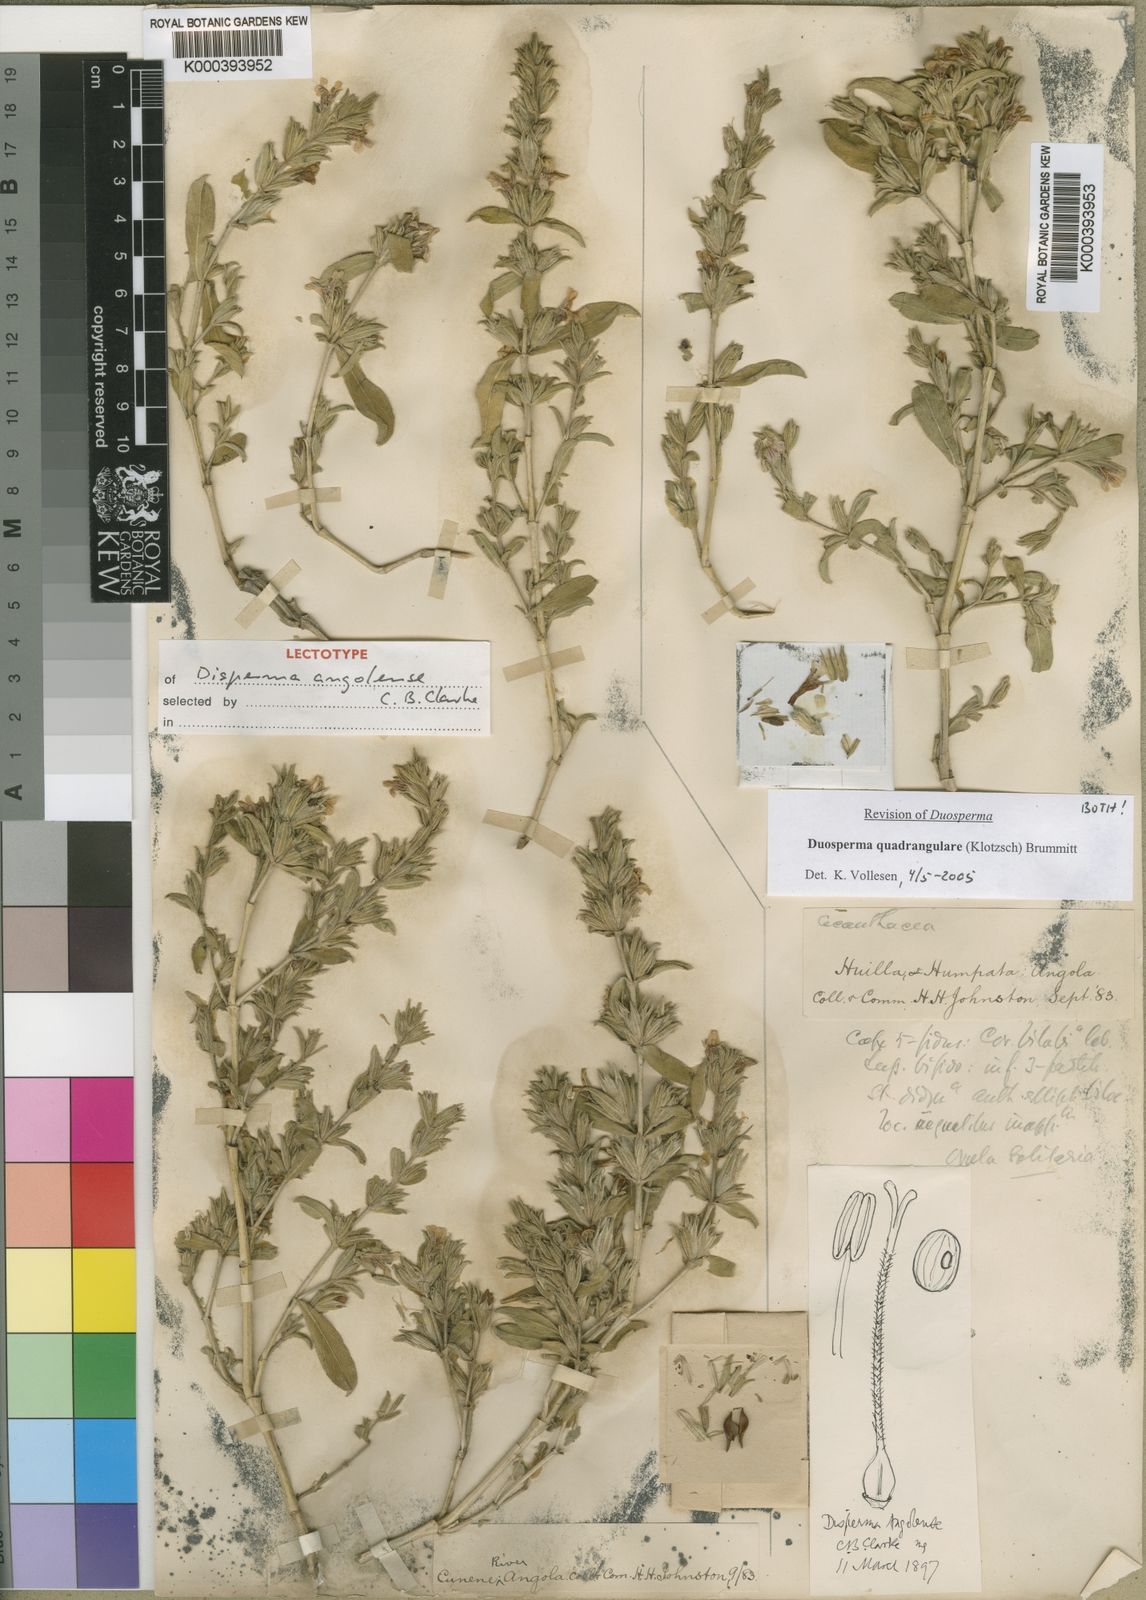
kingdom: Plantae
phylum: Tracheophyta
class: Magnoliopsida
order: Lamiales
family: Acanthaceae
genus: Duosperma
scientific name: Duosperma quadrangulare
